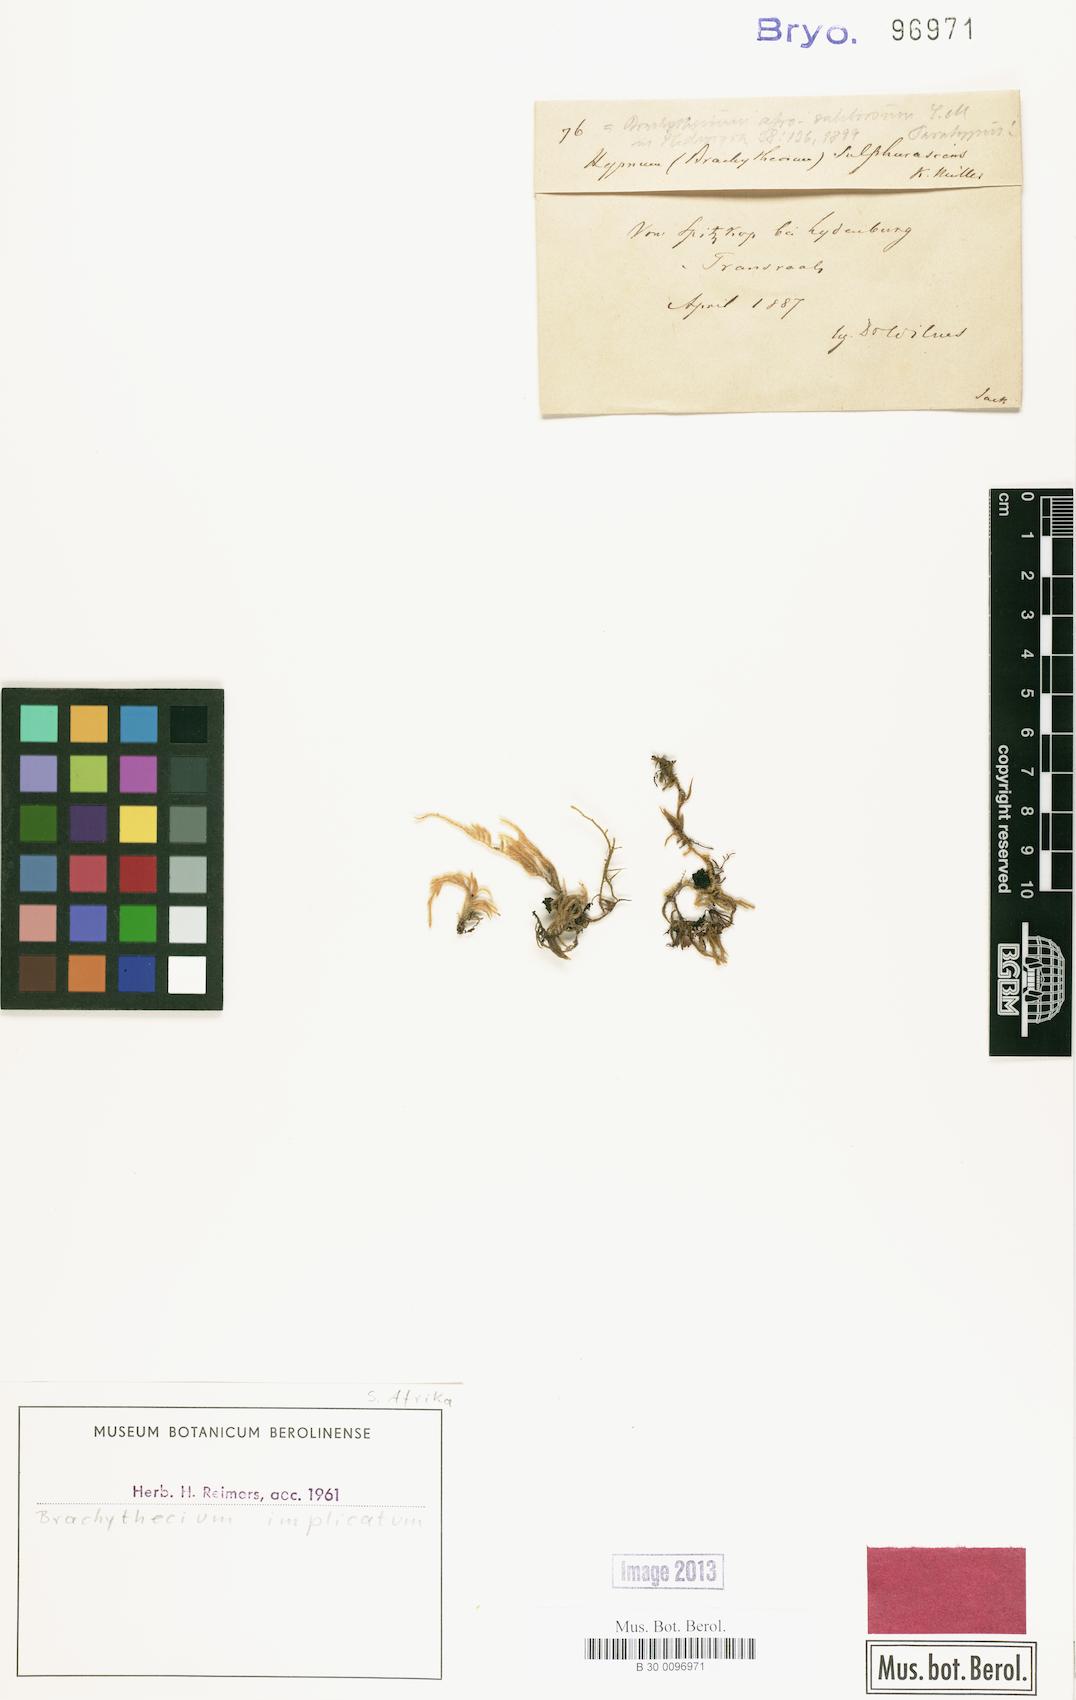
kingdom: Plantae
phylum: Bryophyta
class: Bryopsida
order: Hypnales
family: Brachytheciaceae
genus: Brachythecium
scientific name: Brachythecium ruderale
